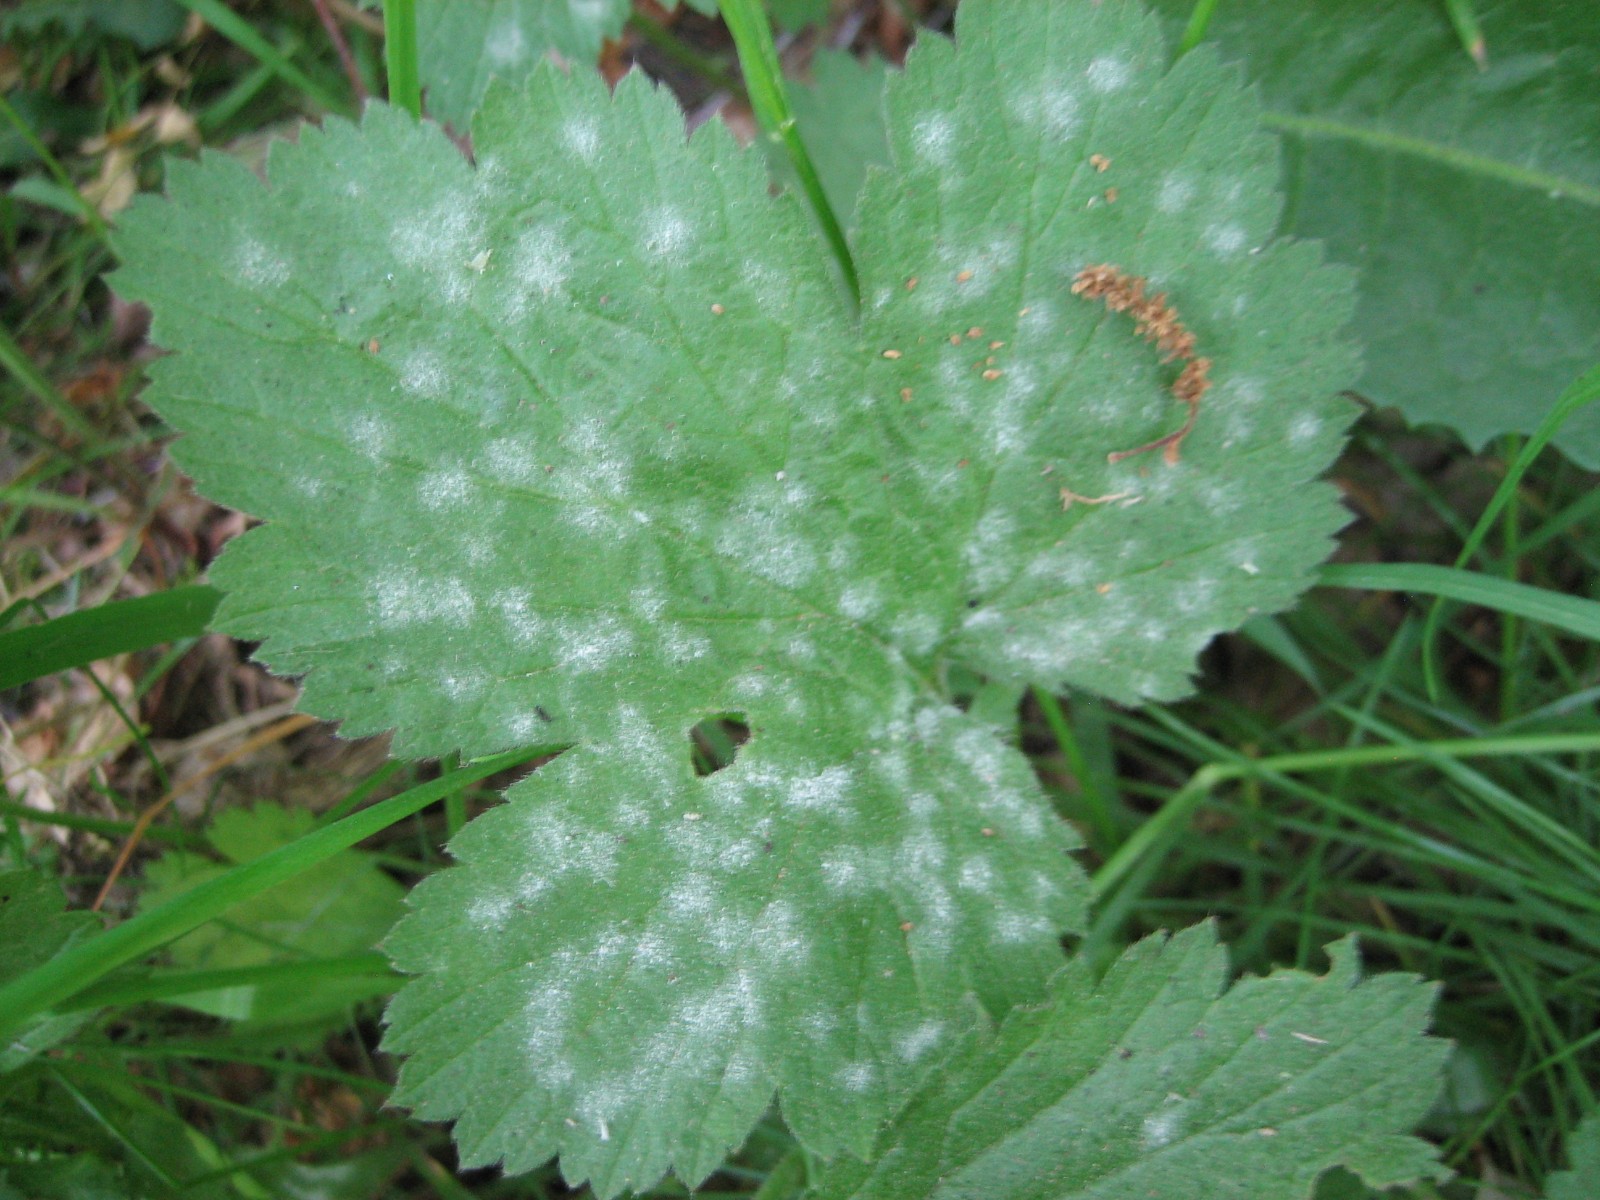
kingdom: Fungi
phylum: Ascomycota
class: Leotiomycetes
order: Helotiales
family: Erysiphaceae
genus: Podosphaera
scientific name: Podosphaera aphanis
